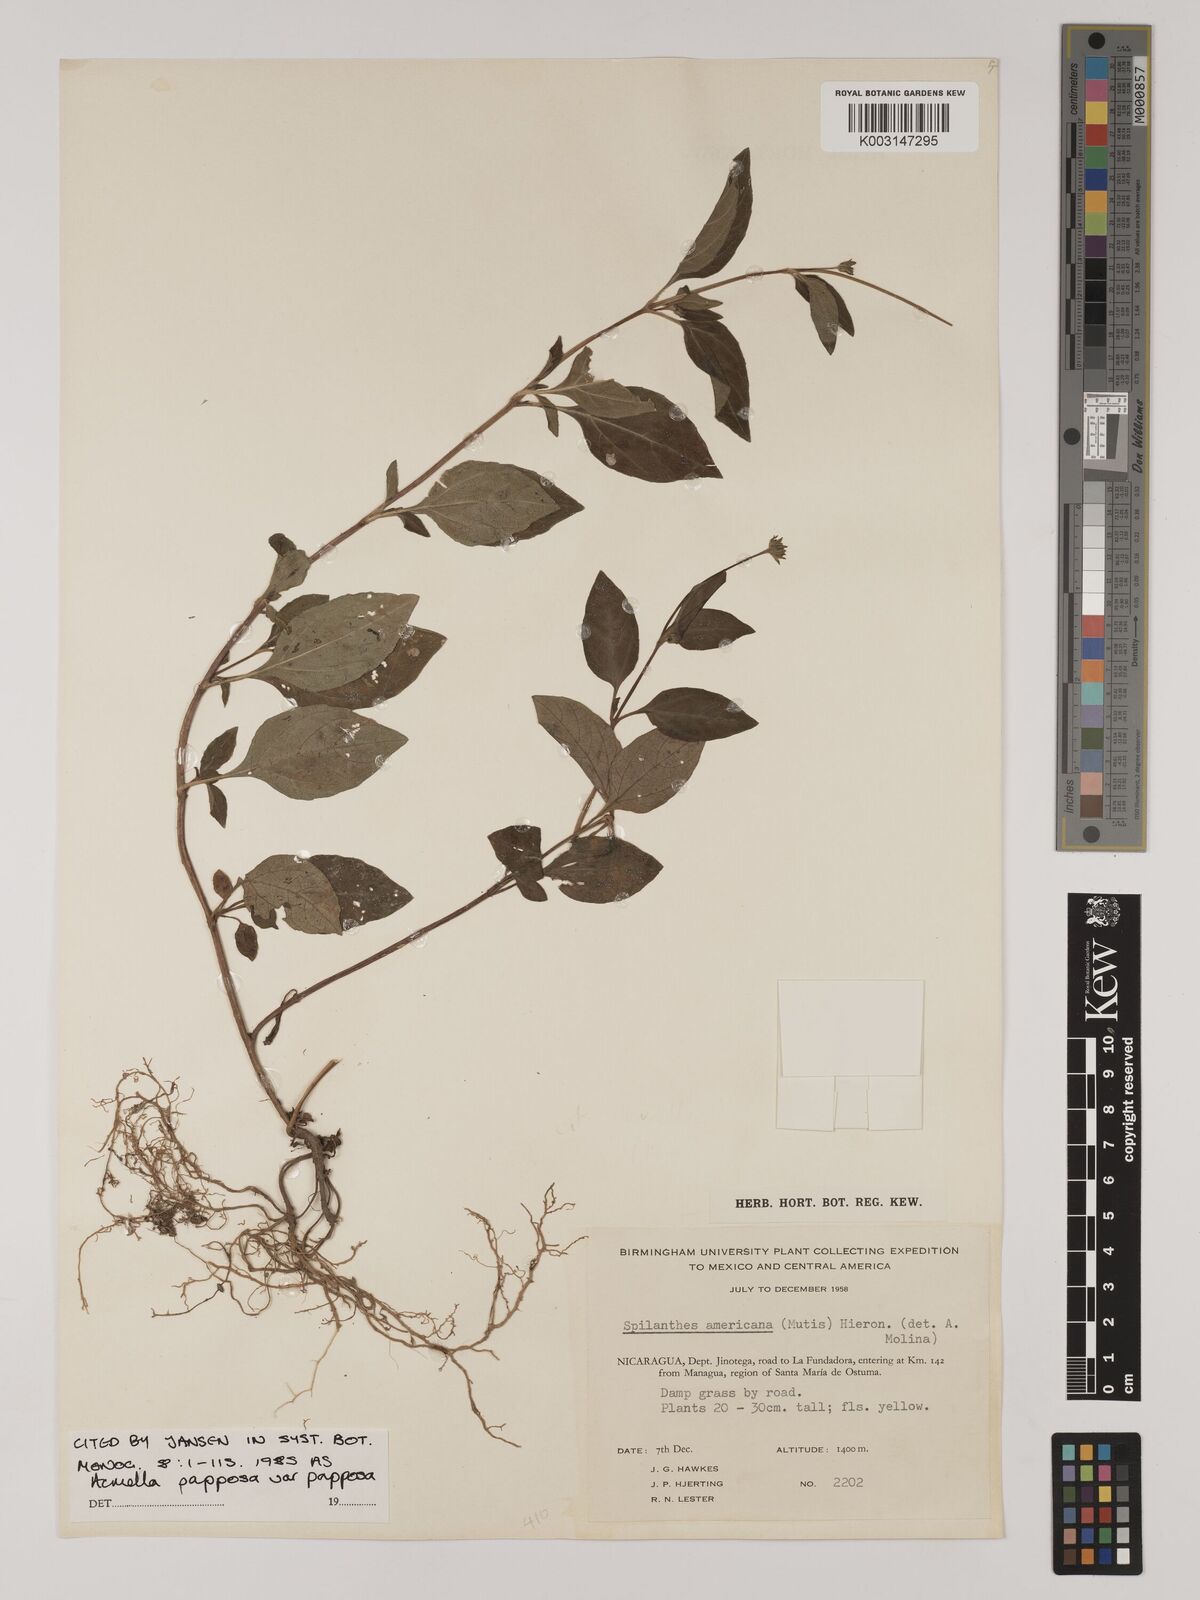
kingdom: Plantae
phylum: Tracheophyta
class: Magnoliopsida
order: Asterales
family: Asteraceae
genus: Acmella
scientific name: Acmella papposa
